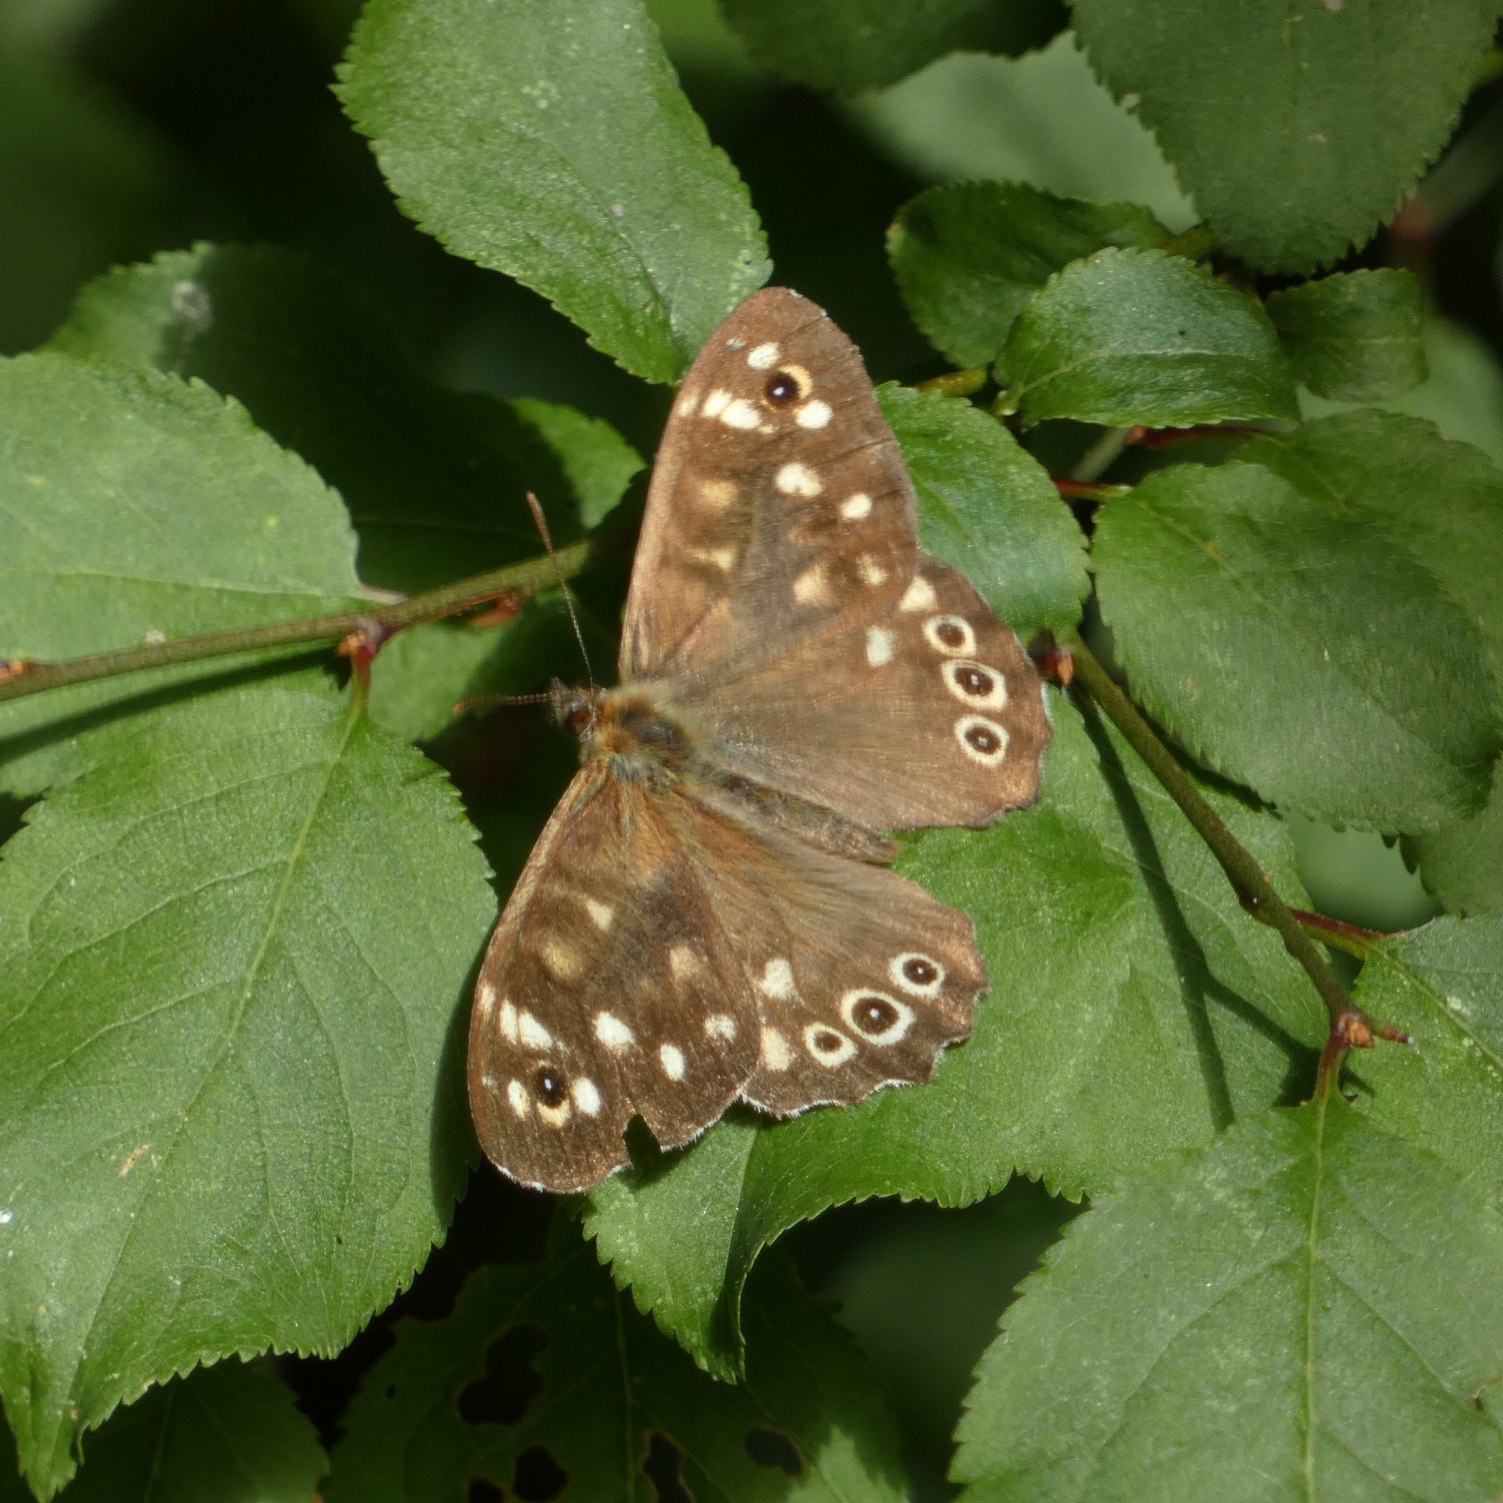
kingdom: Animalia
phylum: Arthropoda
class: Insecta
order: Lepidoptera
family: Nymphalidae
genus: Pararge
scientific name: Pararge aegeria
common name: Skovrandøje
